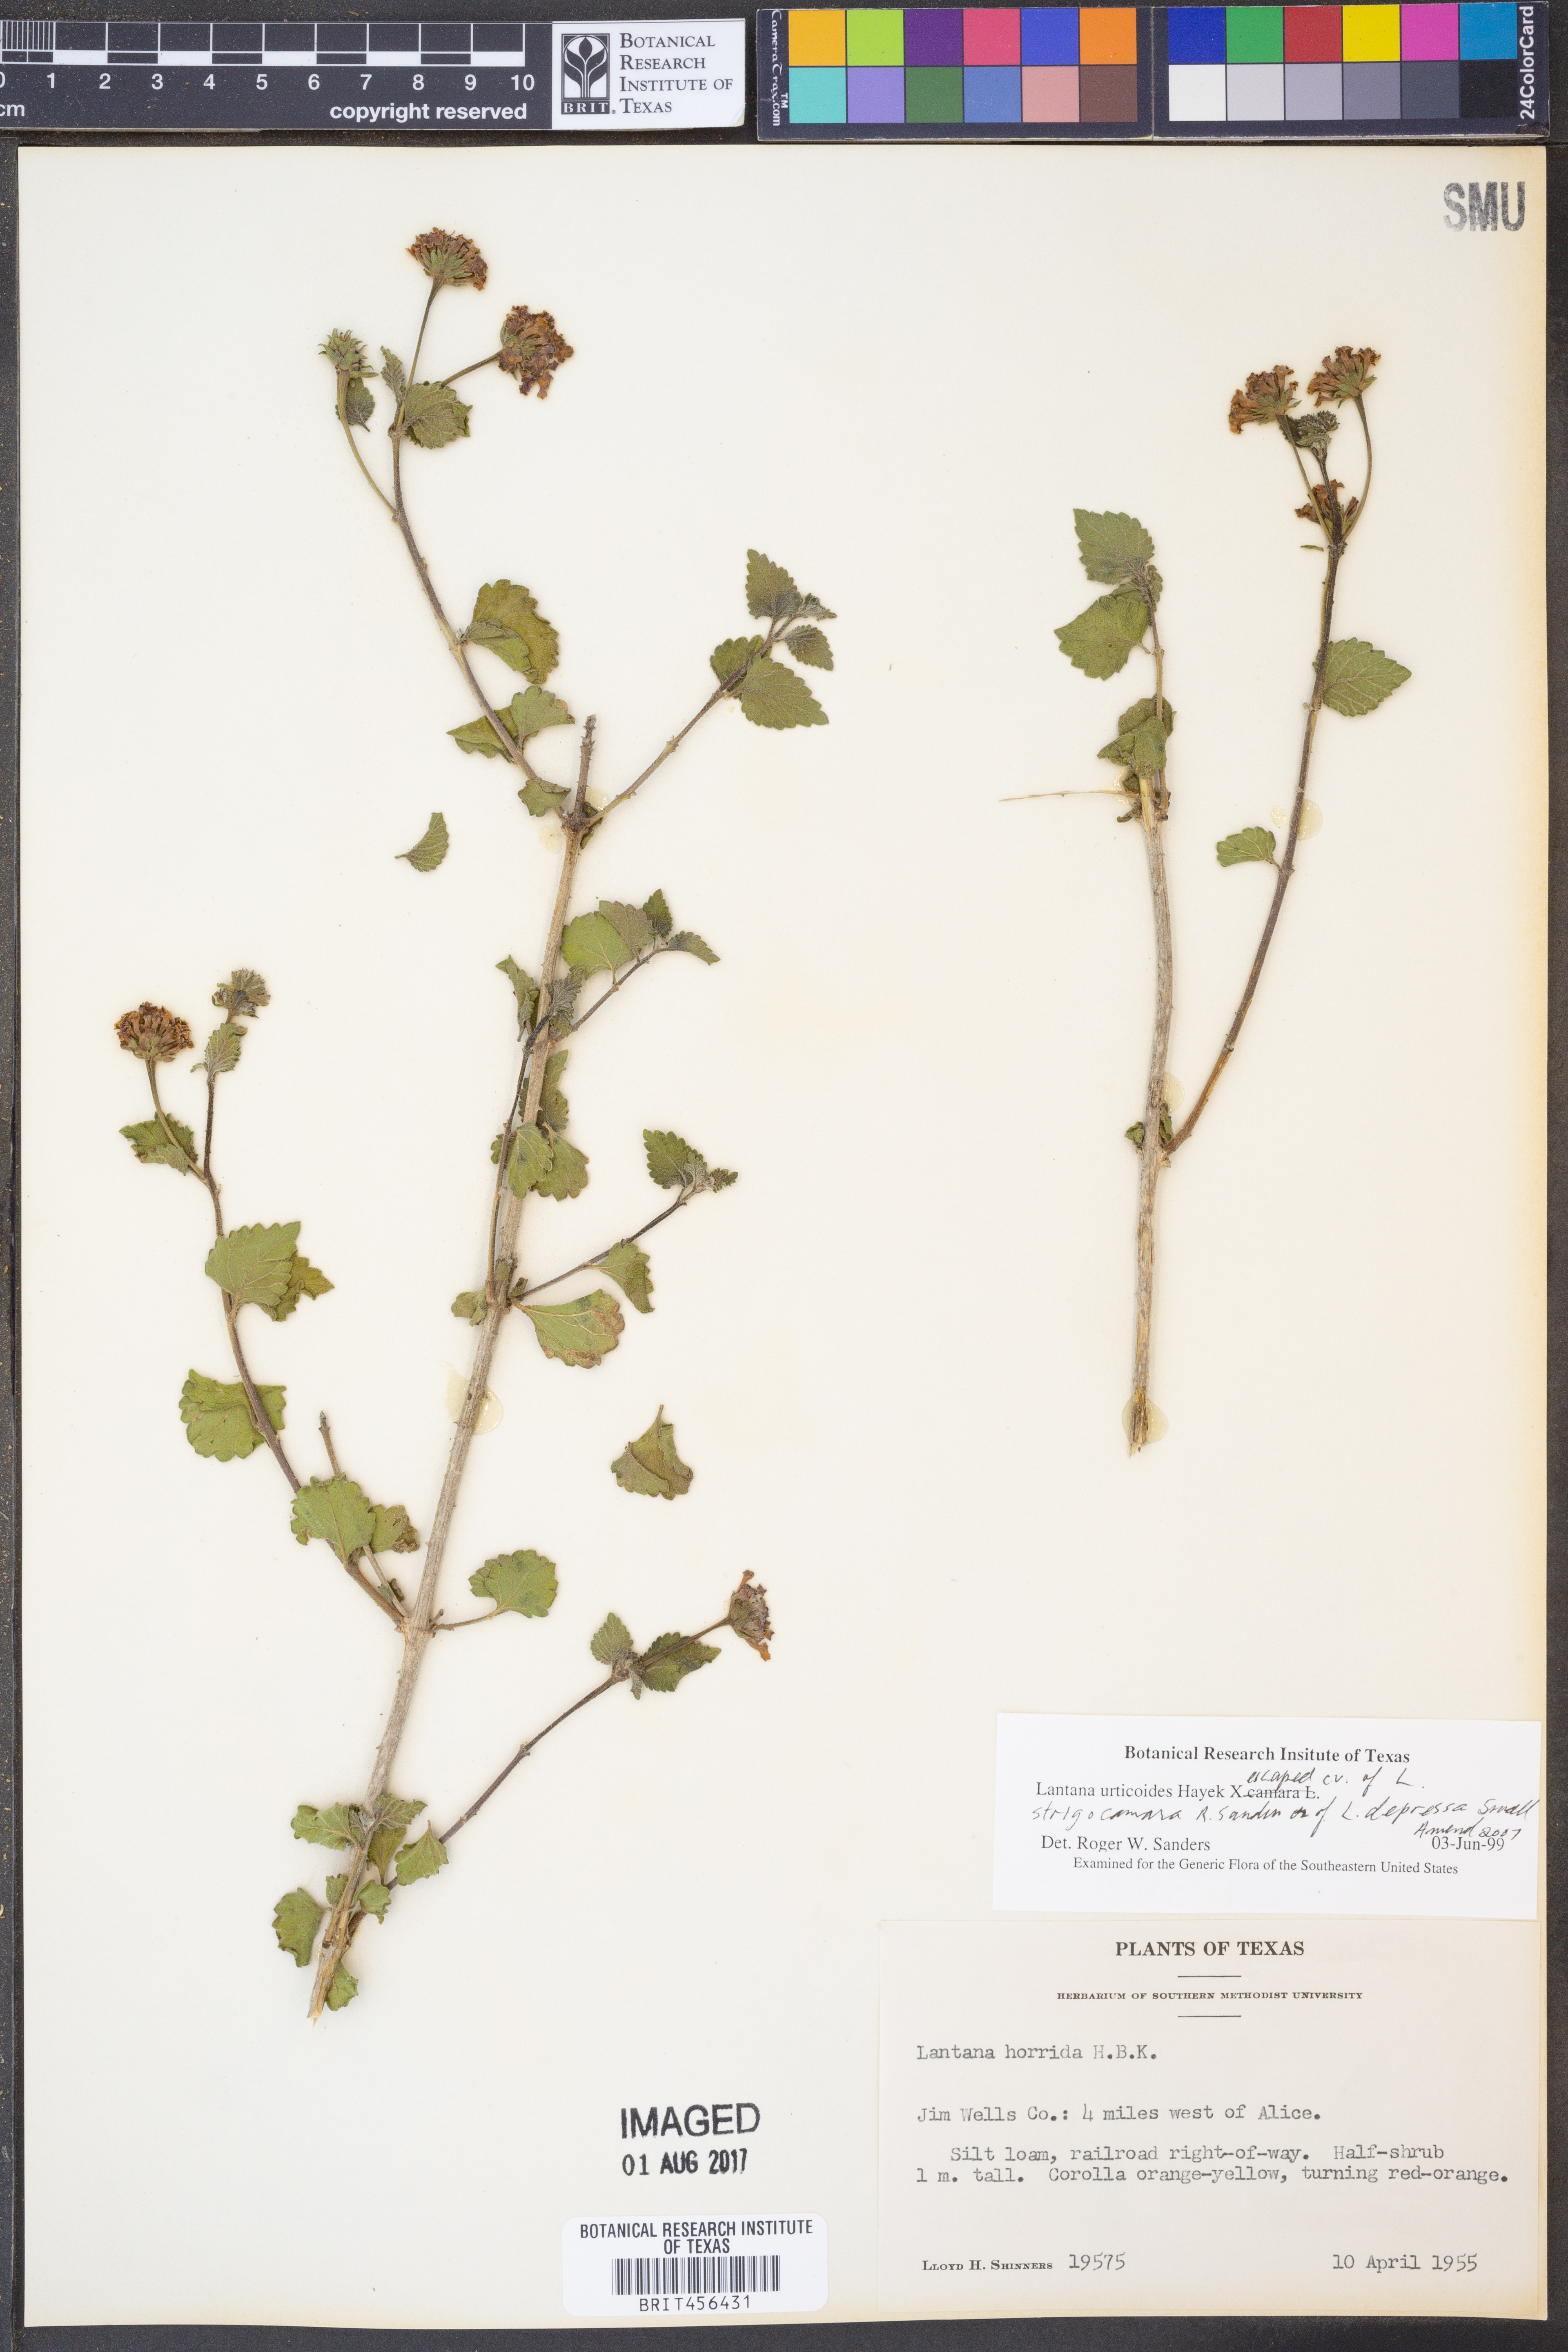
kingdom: Plantae
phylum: Tracheophyta
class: Magnoliopsida
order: Lamiales
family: Verbenaceae
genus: Lantana
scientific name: Lantana urticoides
